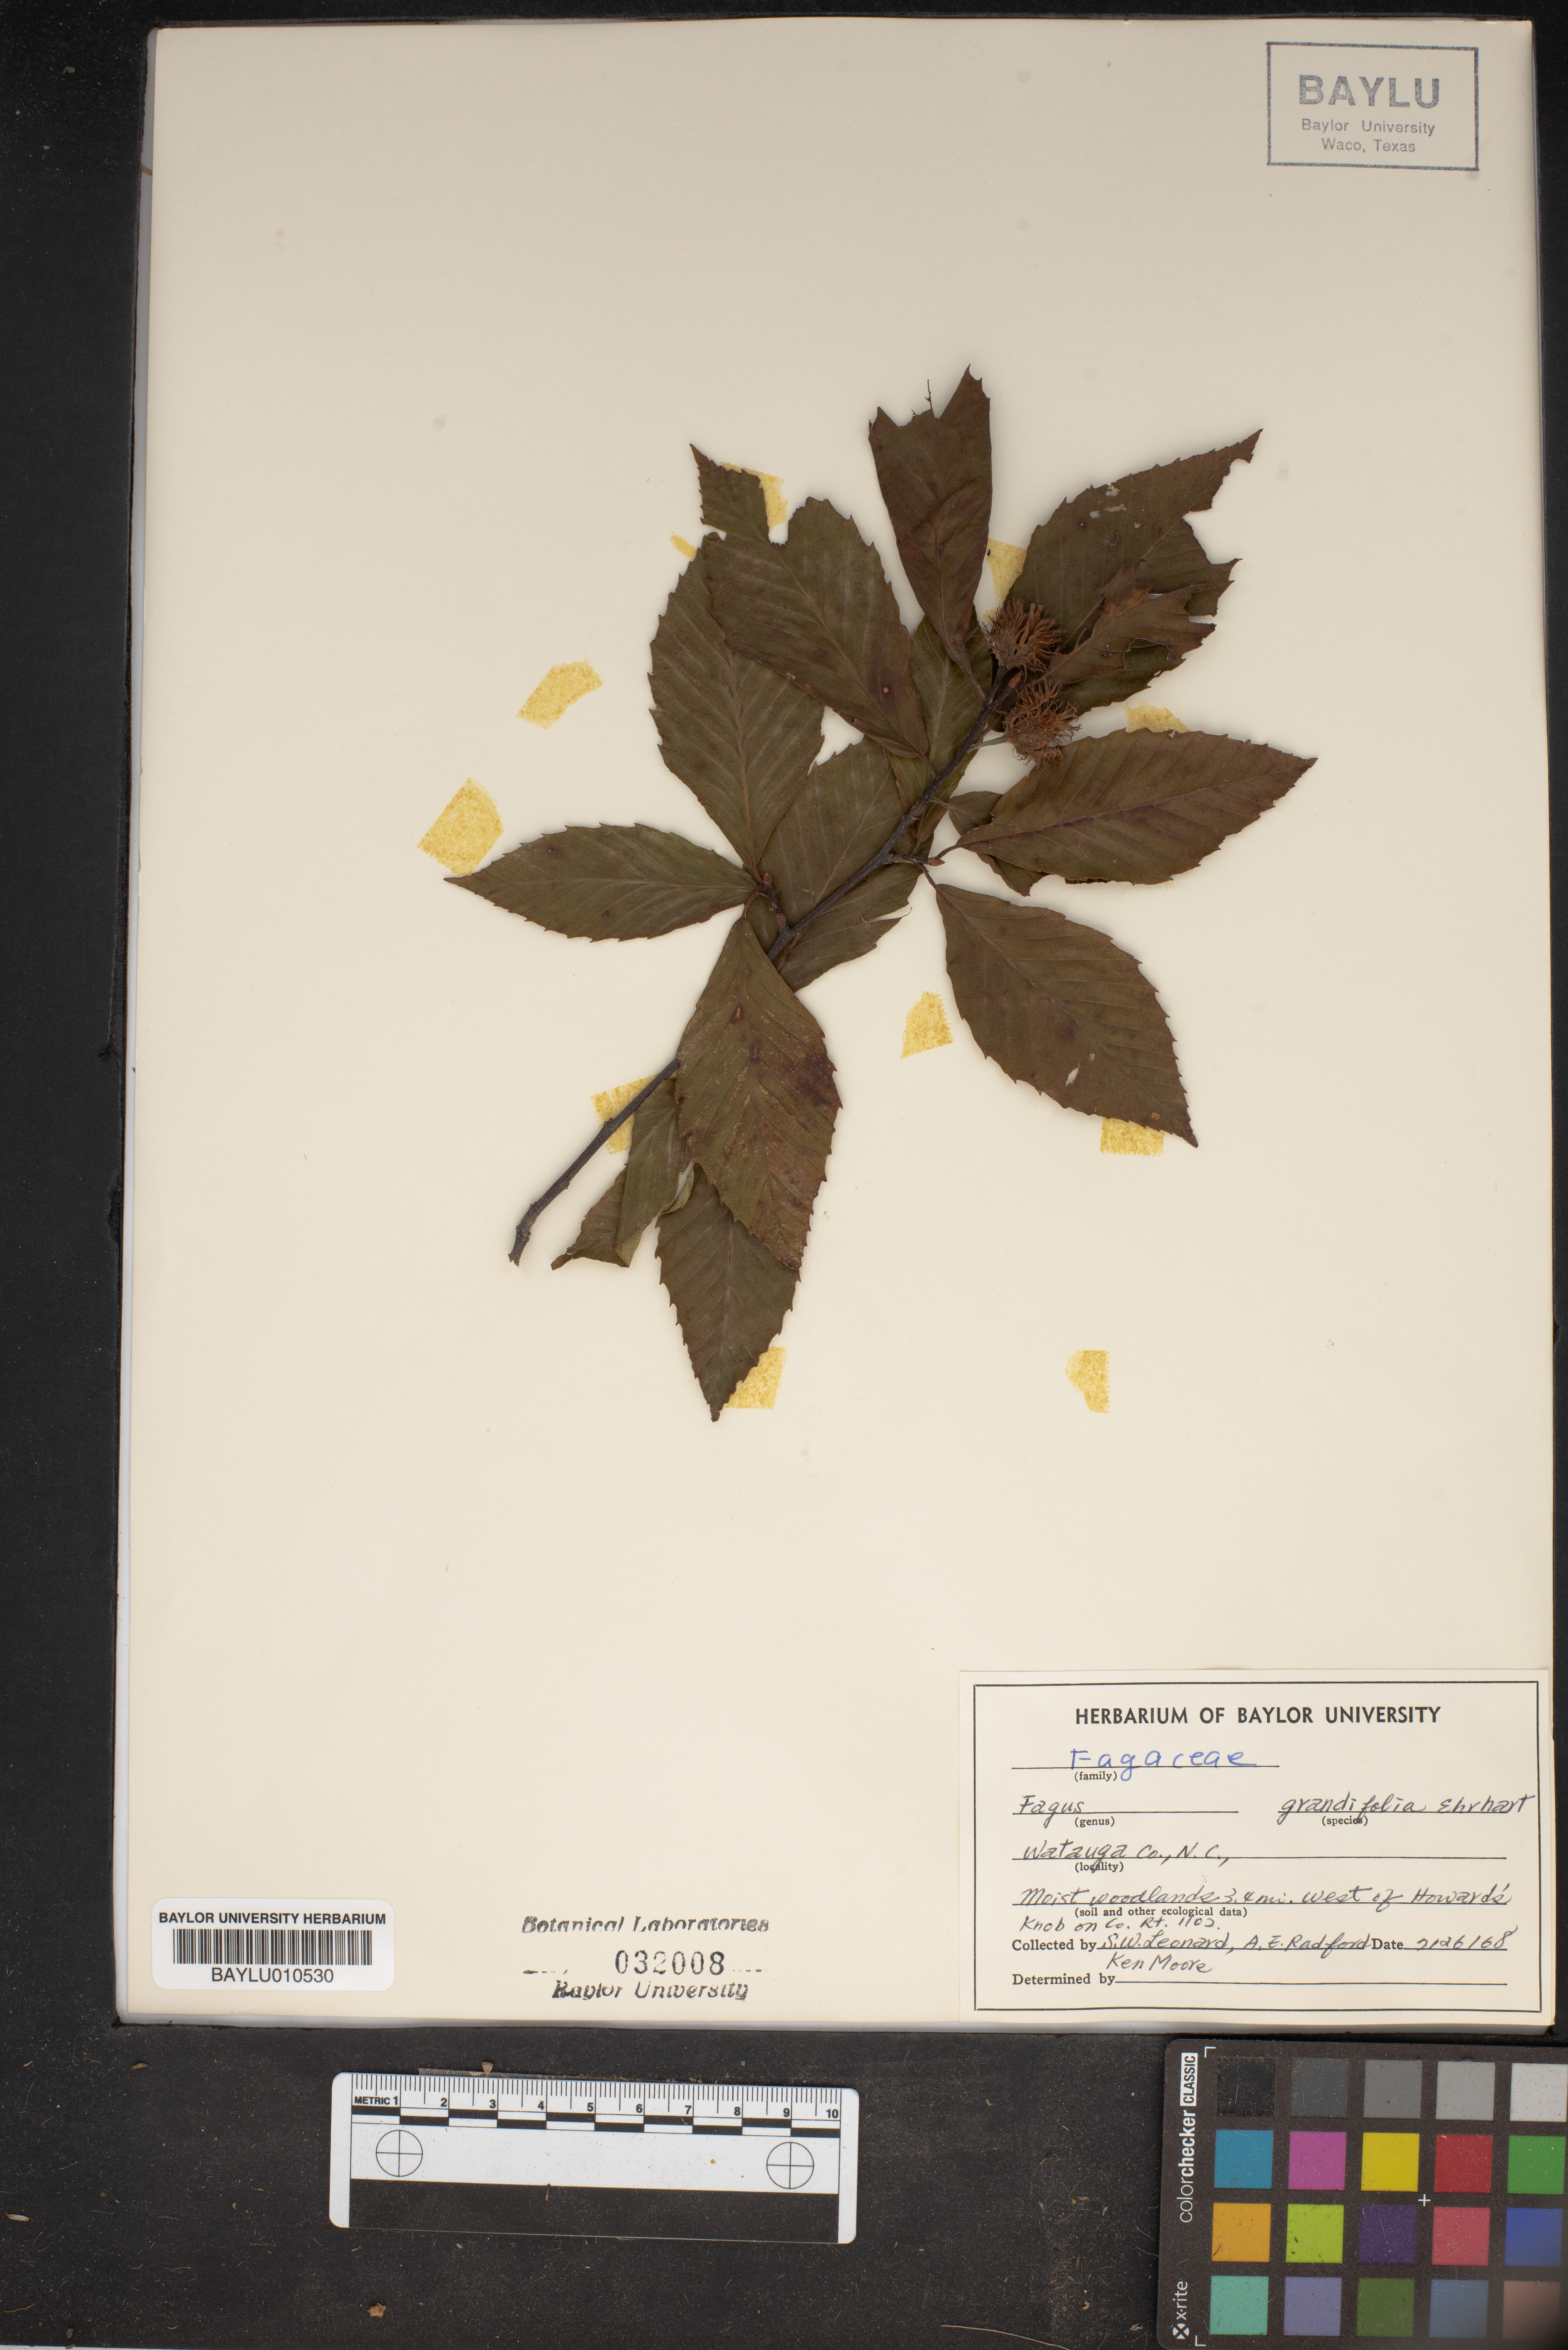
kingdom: Plantae
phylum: Tracheophyta
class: Magnoliopsida
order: Fagales
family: Fagaceae
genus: Fagus
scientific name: Fagus grandifolia
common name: American beech
